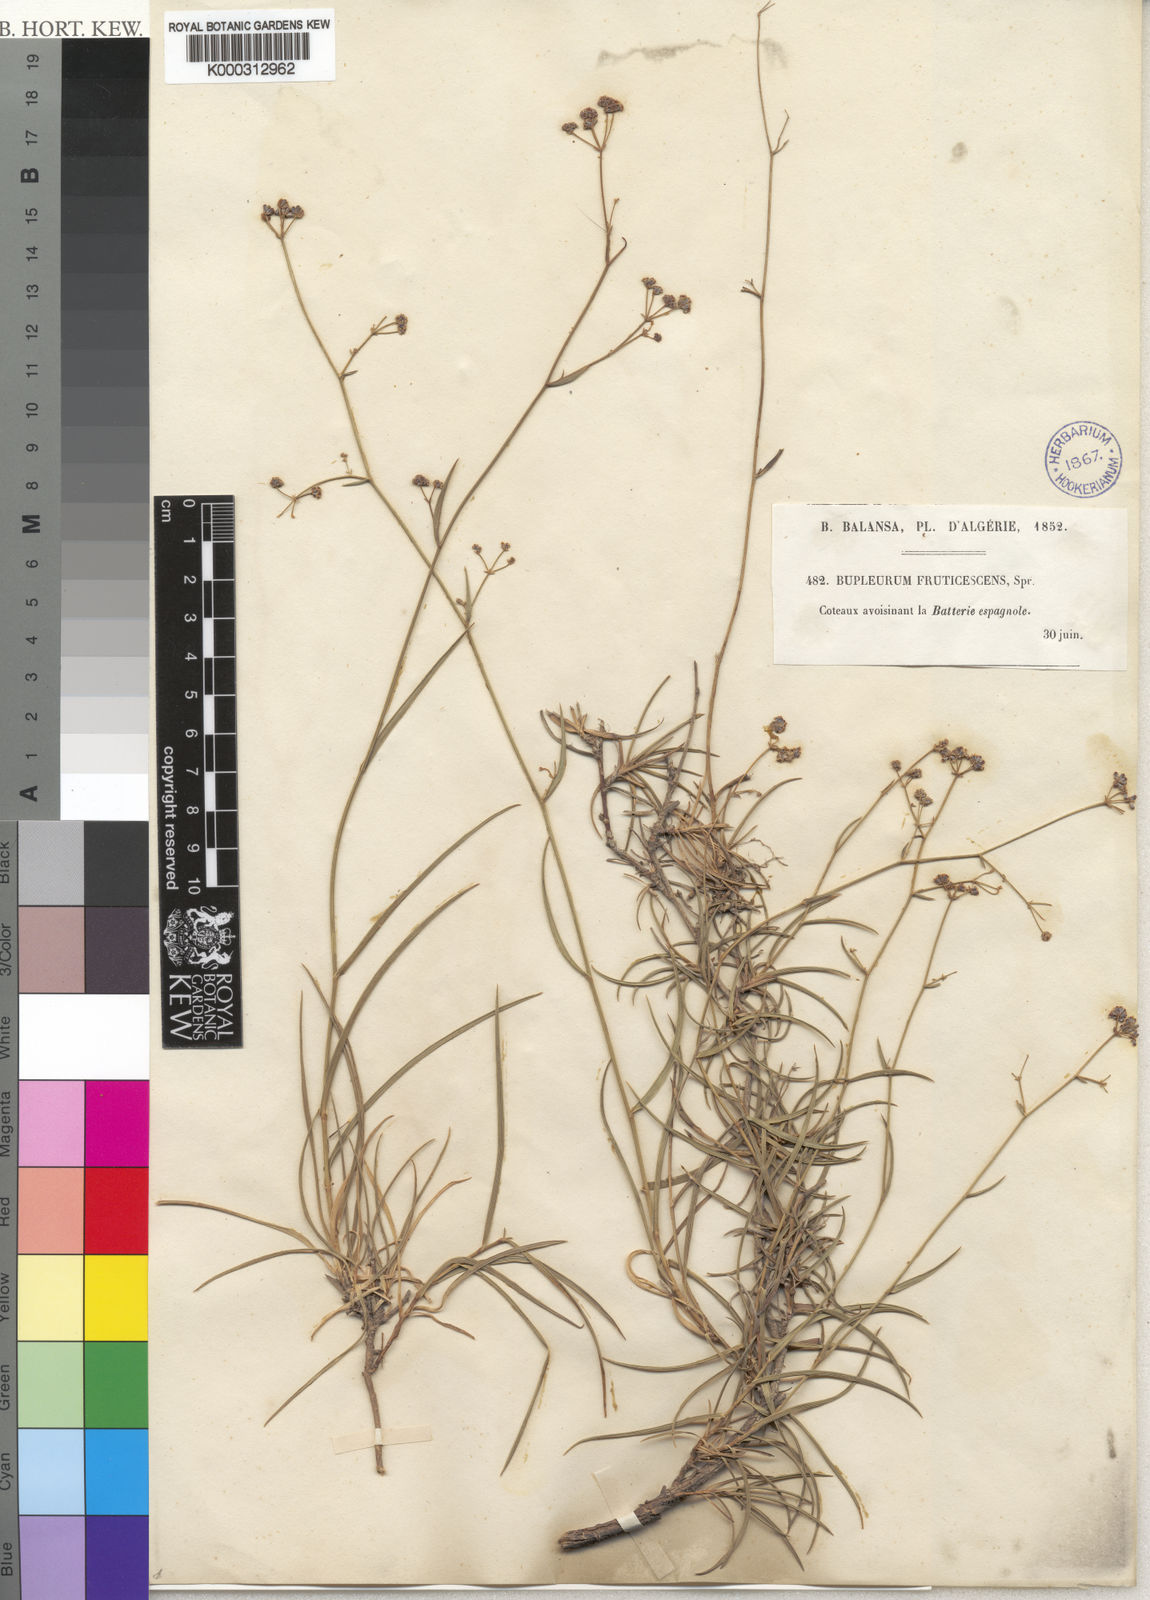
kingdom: Plantae
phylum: Tracheophyta
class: Magnoliopsida
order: Apiales
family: Apiaceae
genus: Bupleurum
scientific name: Bupleurum balansae
